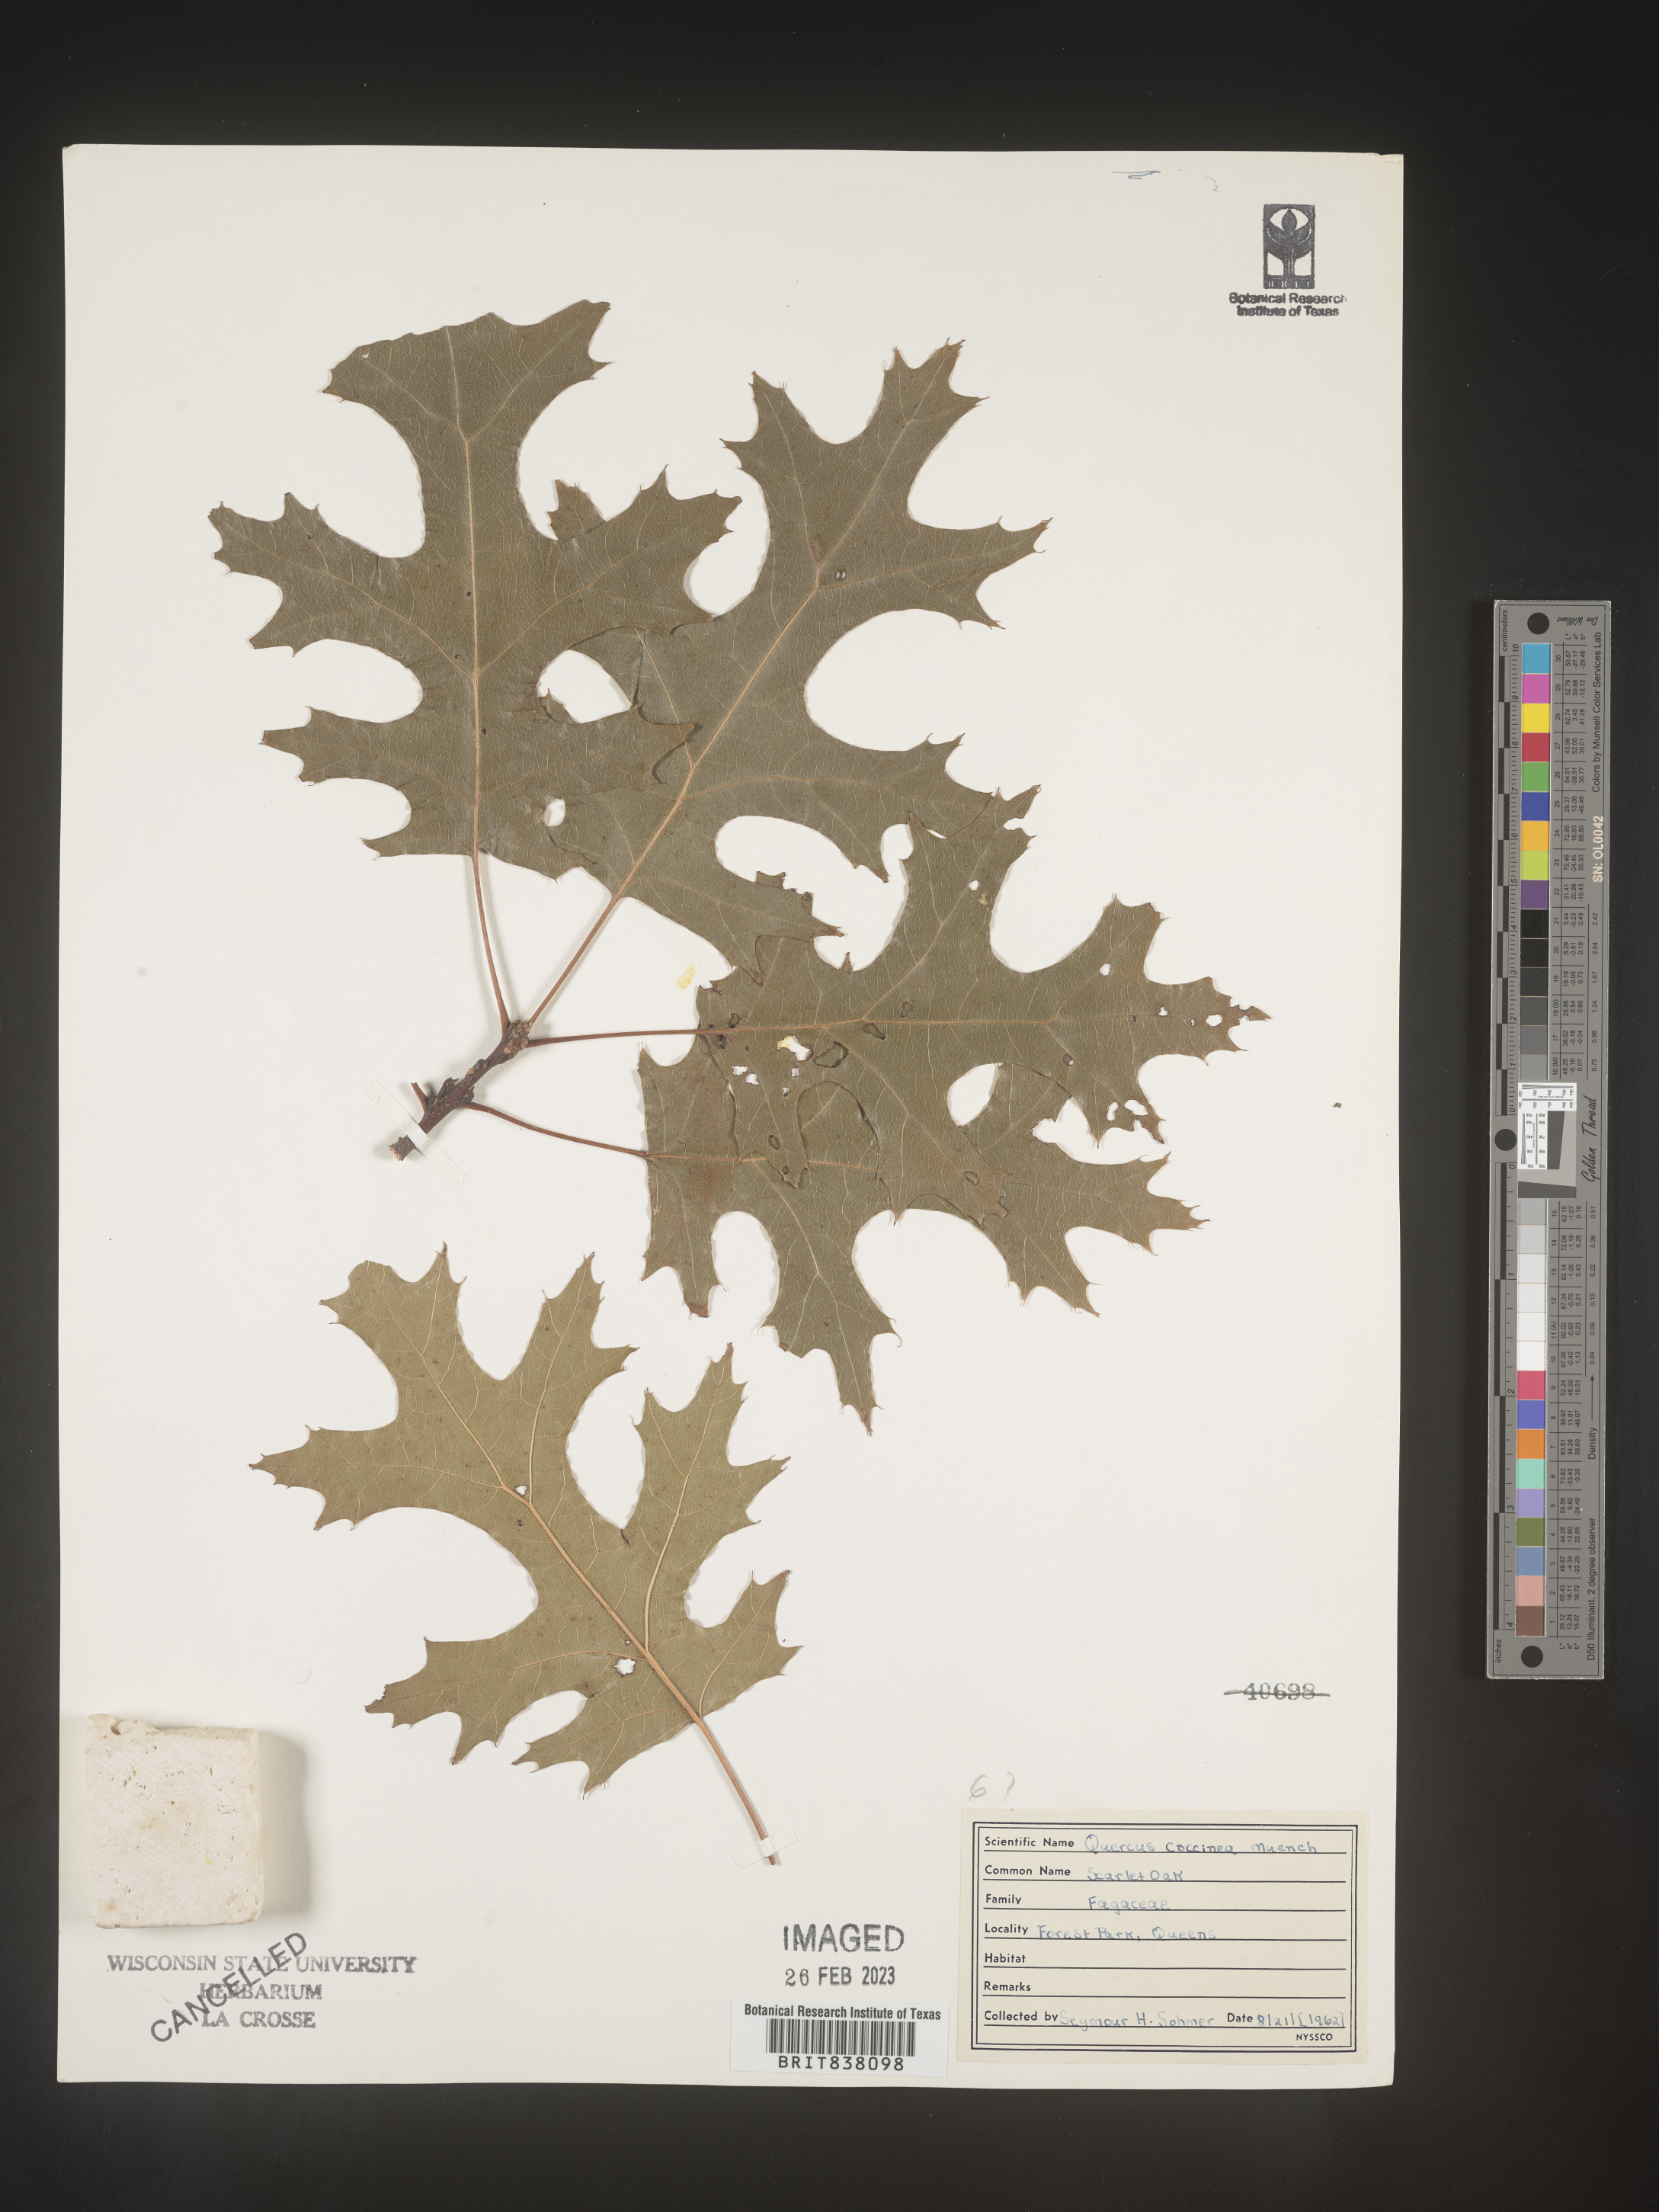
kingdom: Plantae
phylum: Tracheophyta
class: Magnoliopsida
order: Fagales
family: Fagaceae
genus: Quercus
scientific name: Quercus coccinea
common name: Scarlet oak
